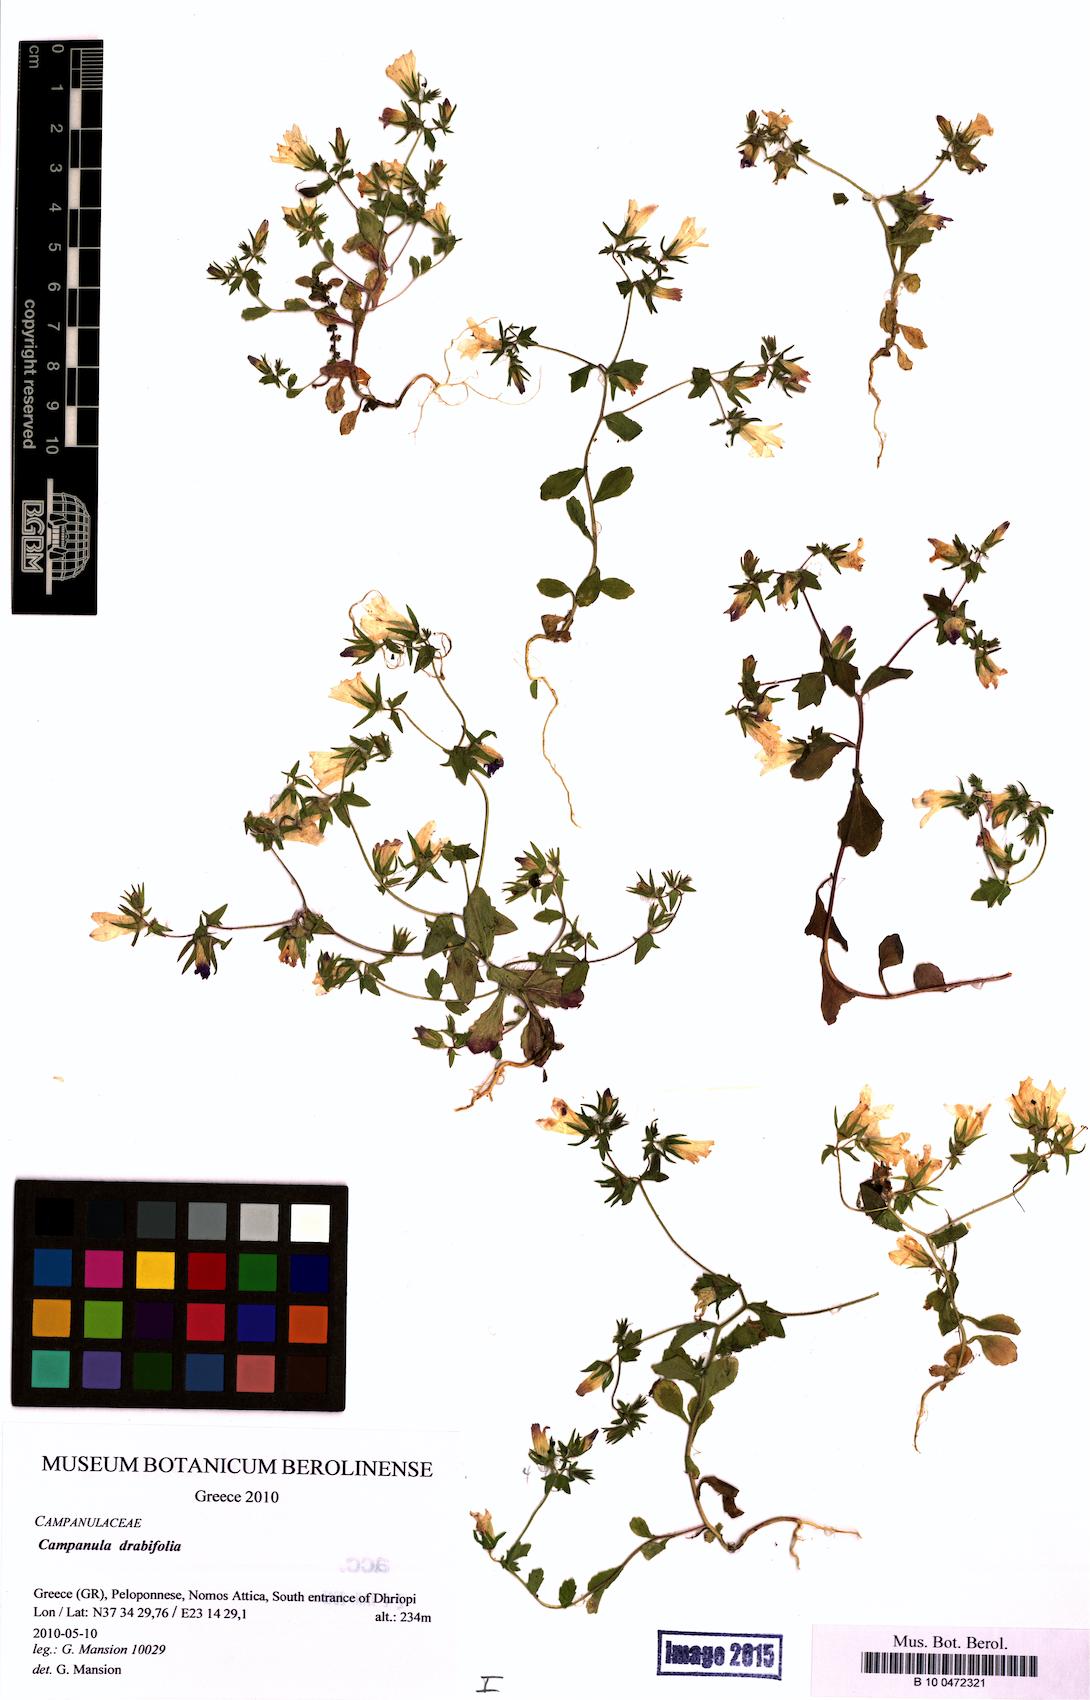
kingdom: Plantae
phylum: Tracheophyta
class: Magnoliopsida
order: Asterales
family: Campanulaceae
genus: Campanula
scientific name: Campanula drabifolia
